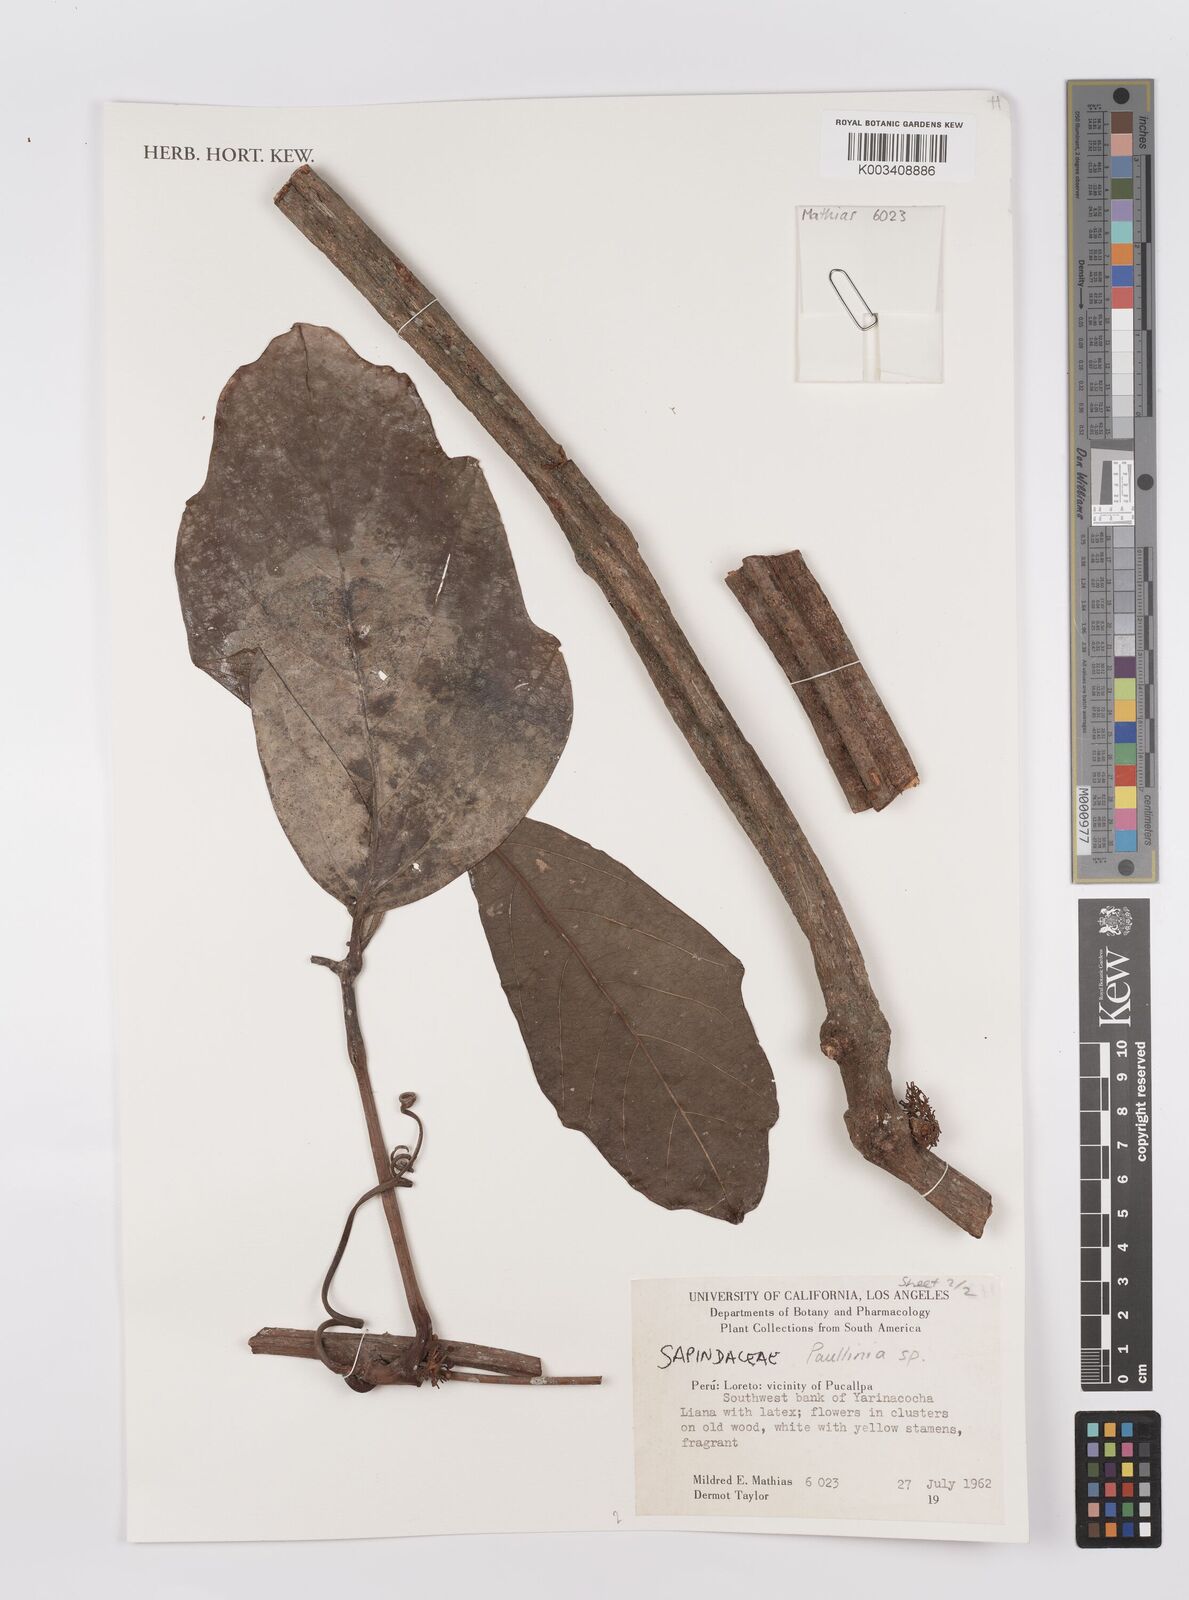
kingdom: Plantae
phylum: Tracheophyta
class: Magnoliopsida
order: Sapindales
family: Sapindaceae
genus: Paullinia
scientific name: Paullinia
